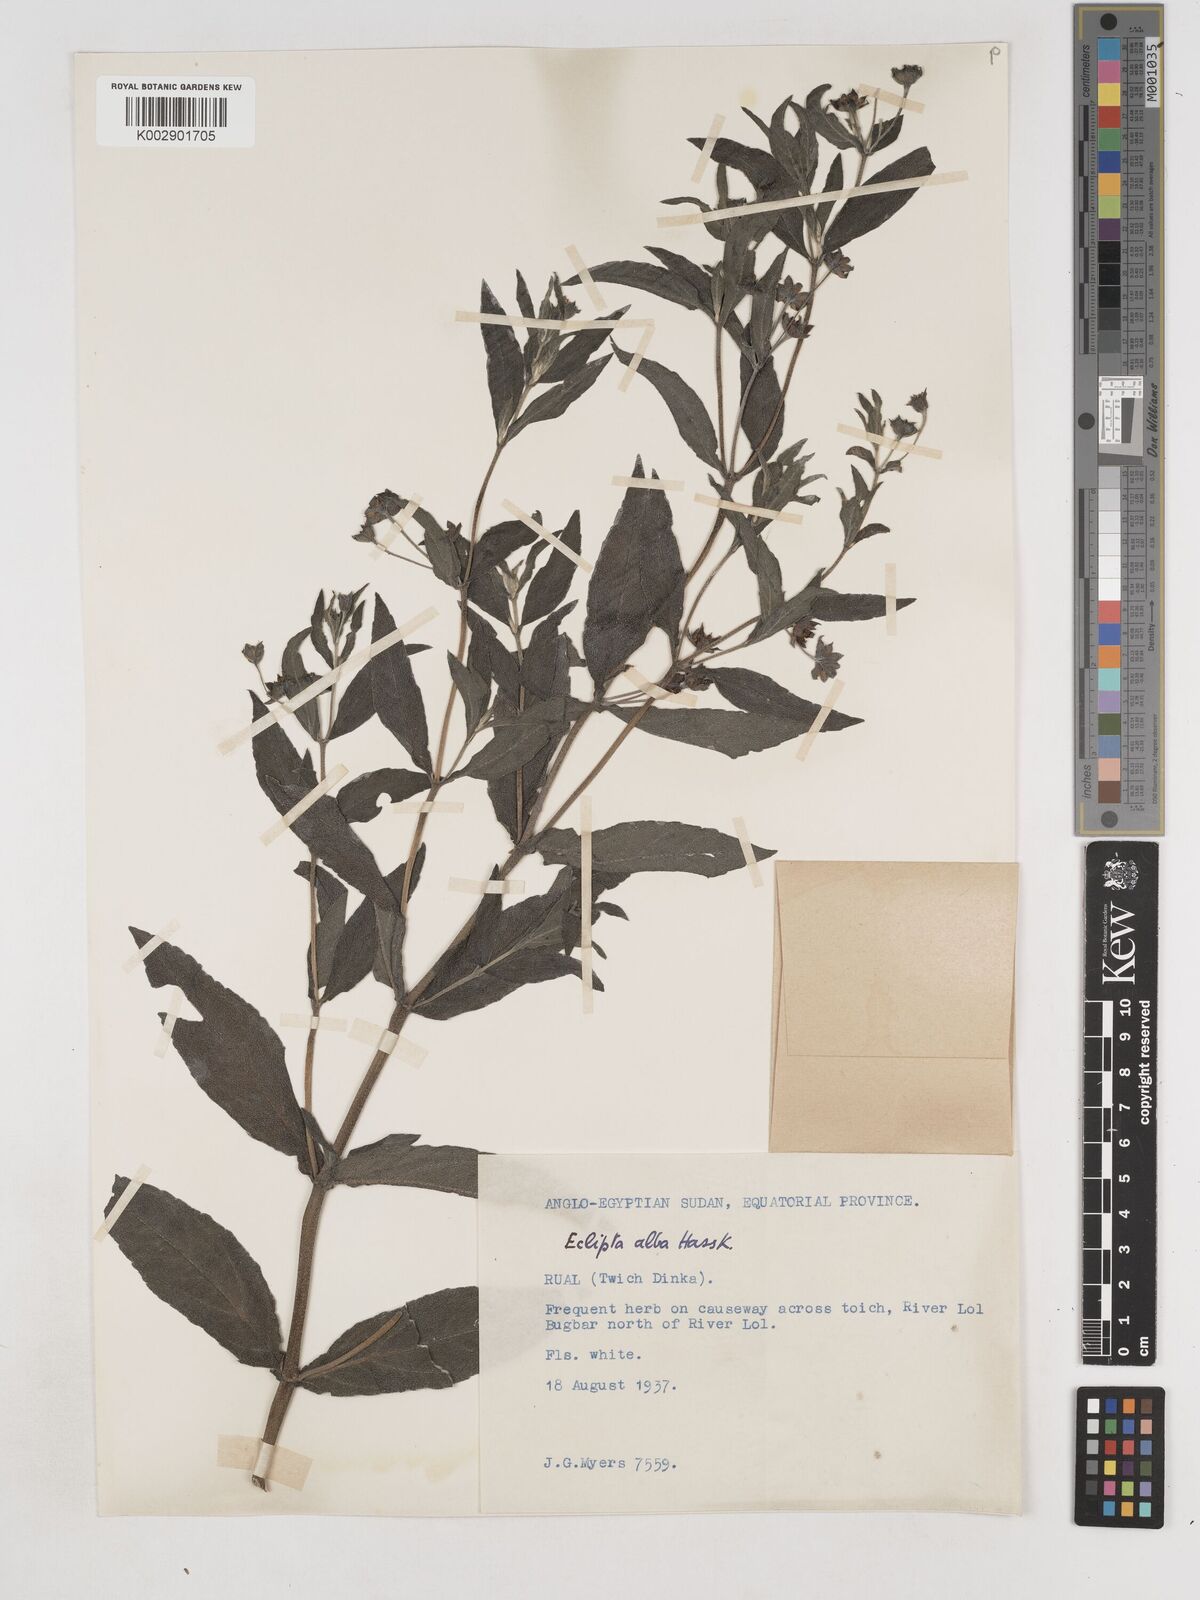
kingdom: Plantae
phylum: Tracheophyta
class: Magnoliopsida
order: Asterales
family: Asteraceae
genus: Eclipta
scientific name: Eclipta alba
